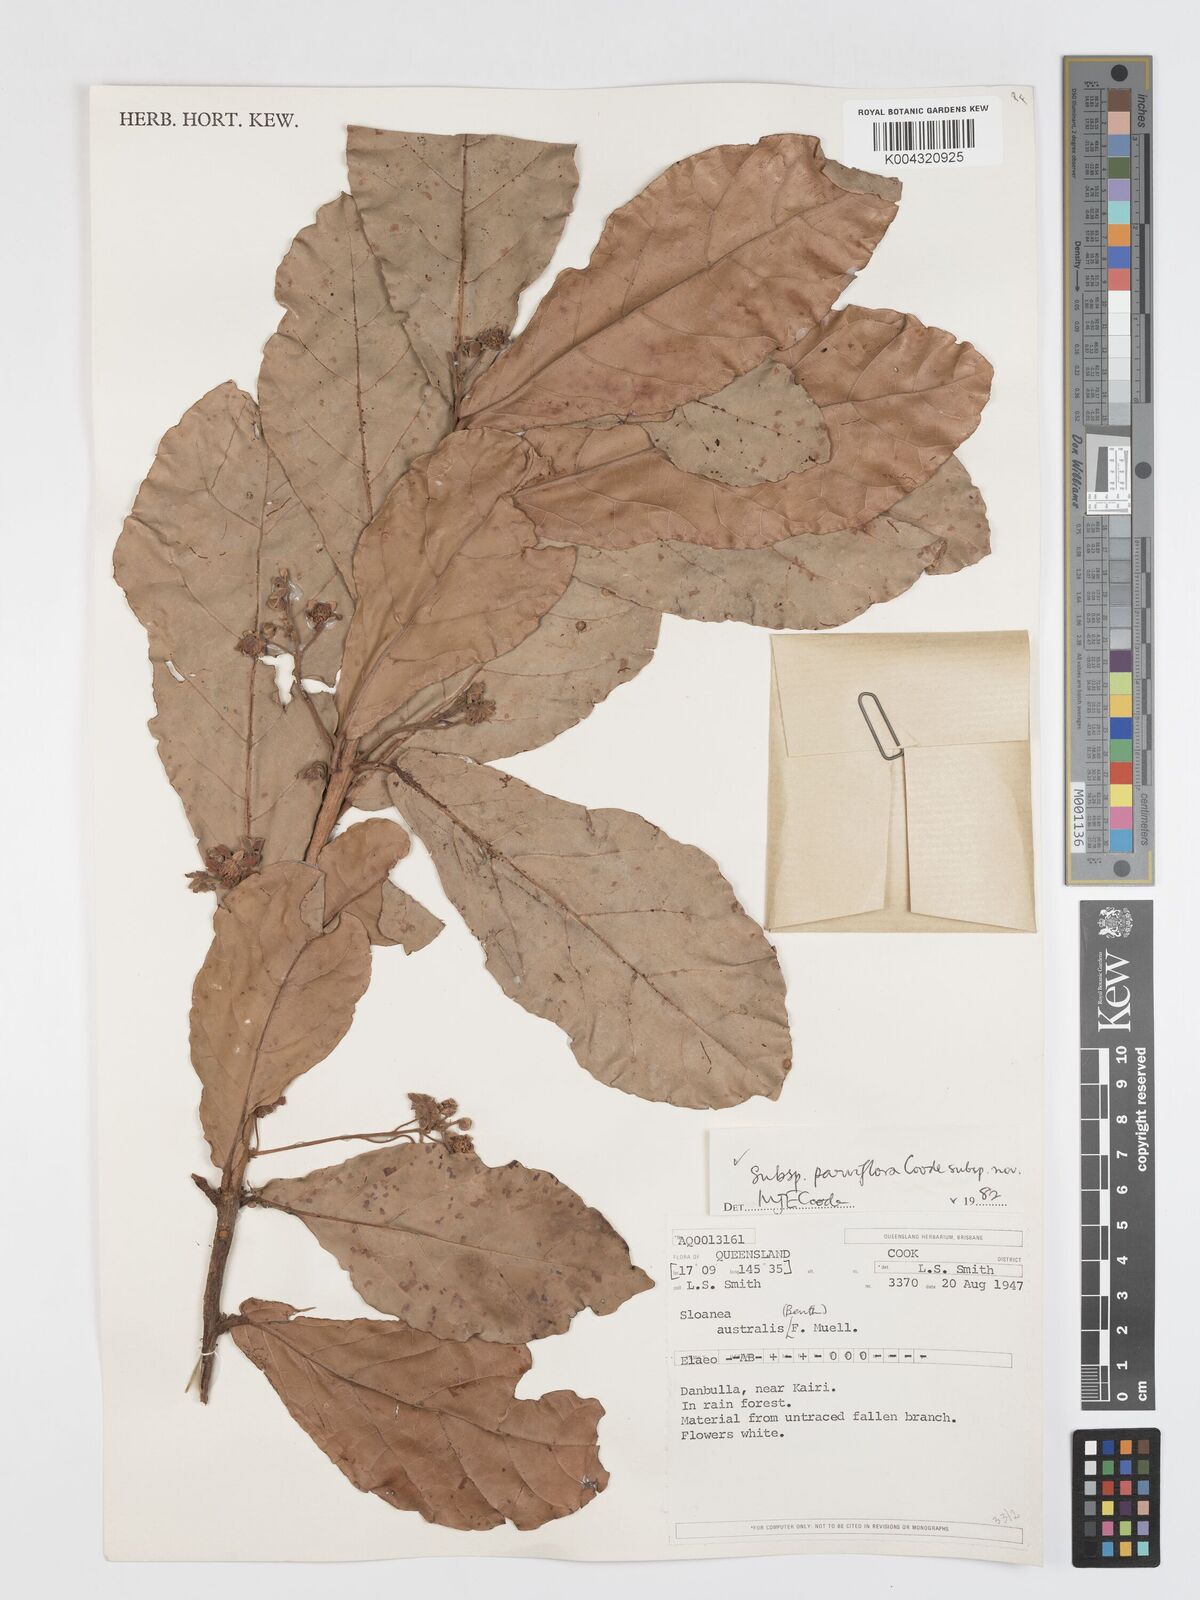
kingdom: Plantae
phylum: Tracheophyta
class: Magnoliopsida
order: Oxalidales
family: Elaeocarpaceae
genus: Sloanea
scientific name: Sloanea australis
